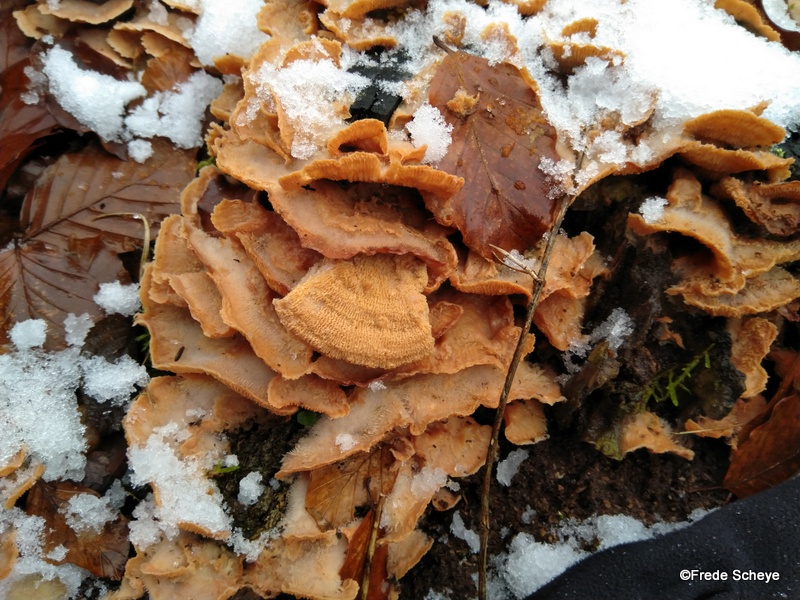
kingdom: Fungi
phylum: Basidiomycota
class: Agaricomycetes
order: Polyporales
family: Meruliaceae
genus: Phlebia
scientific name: Phlebia tremellosa
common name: bævrende åresvamp
